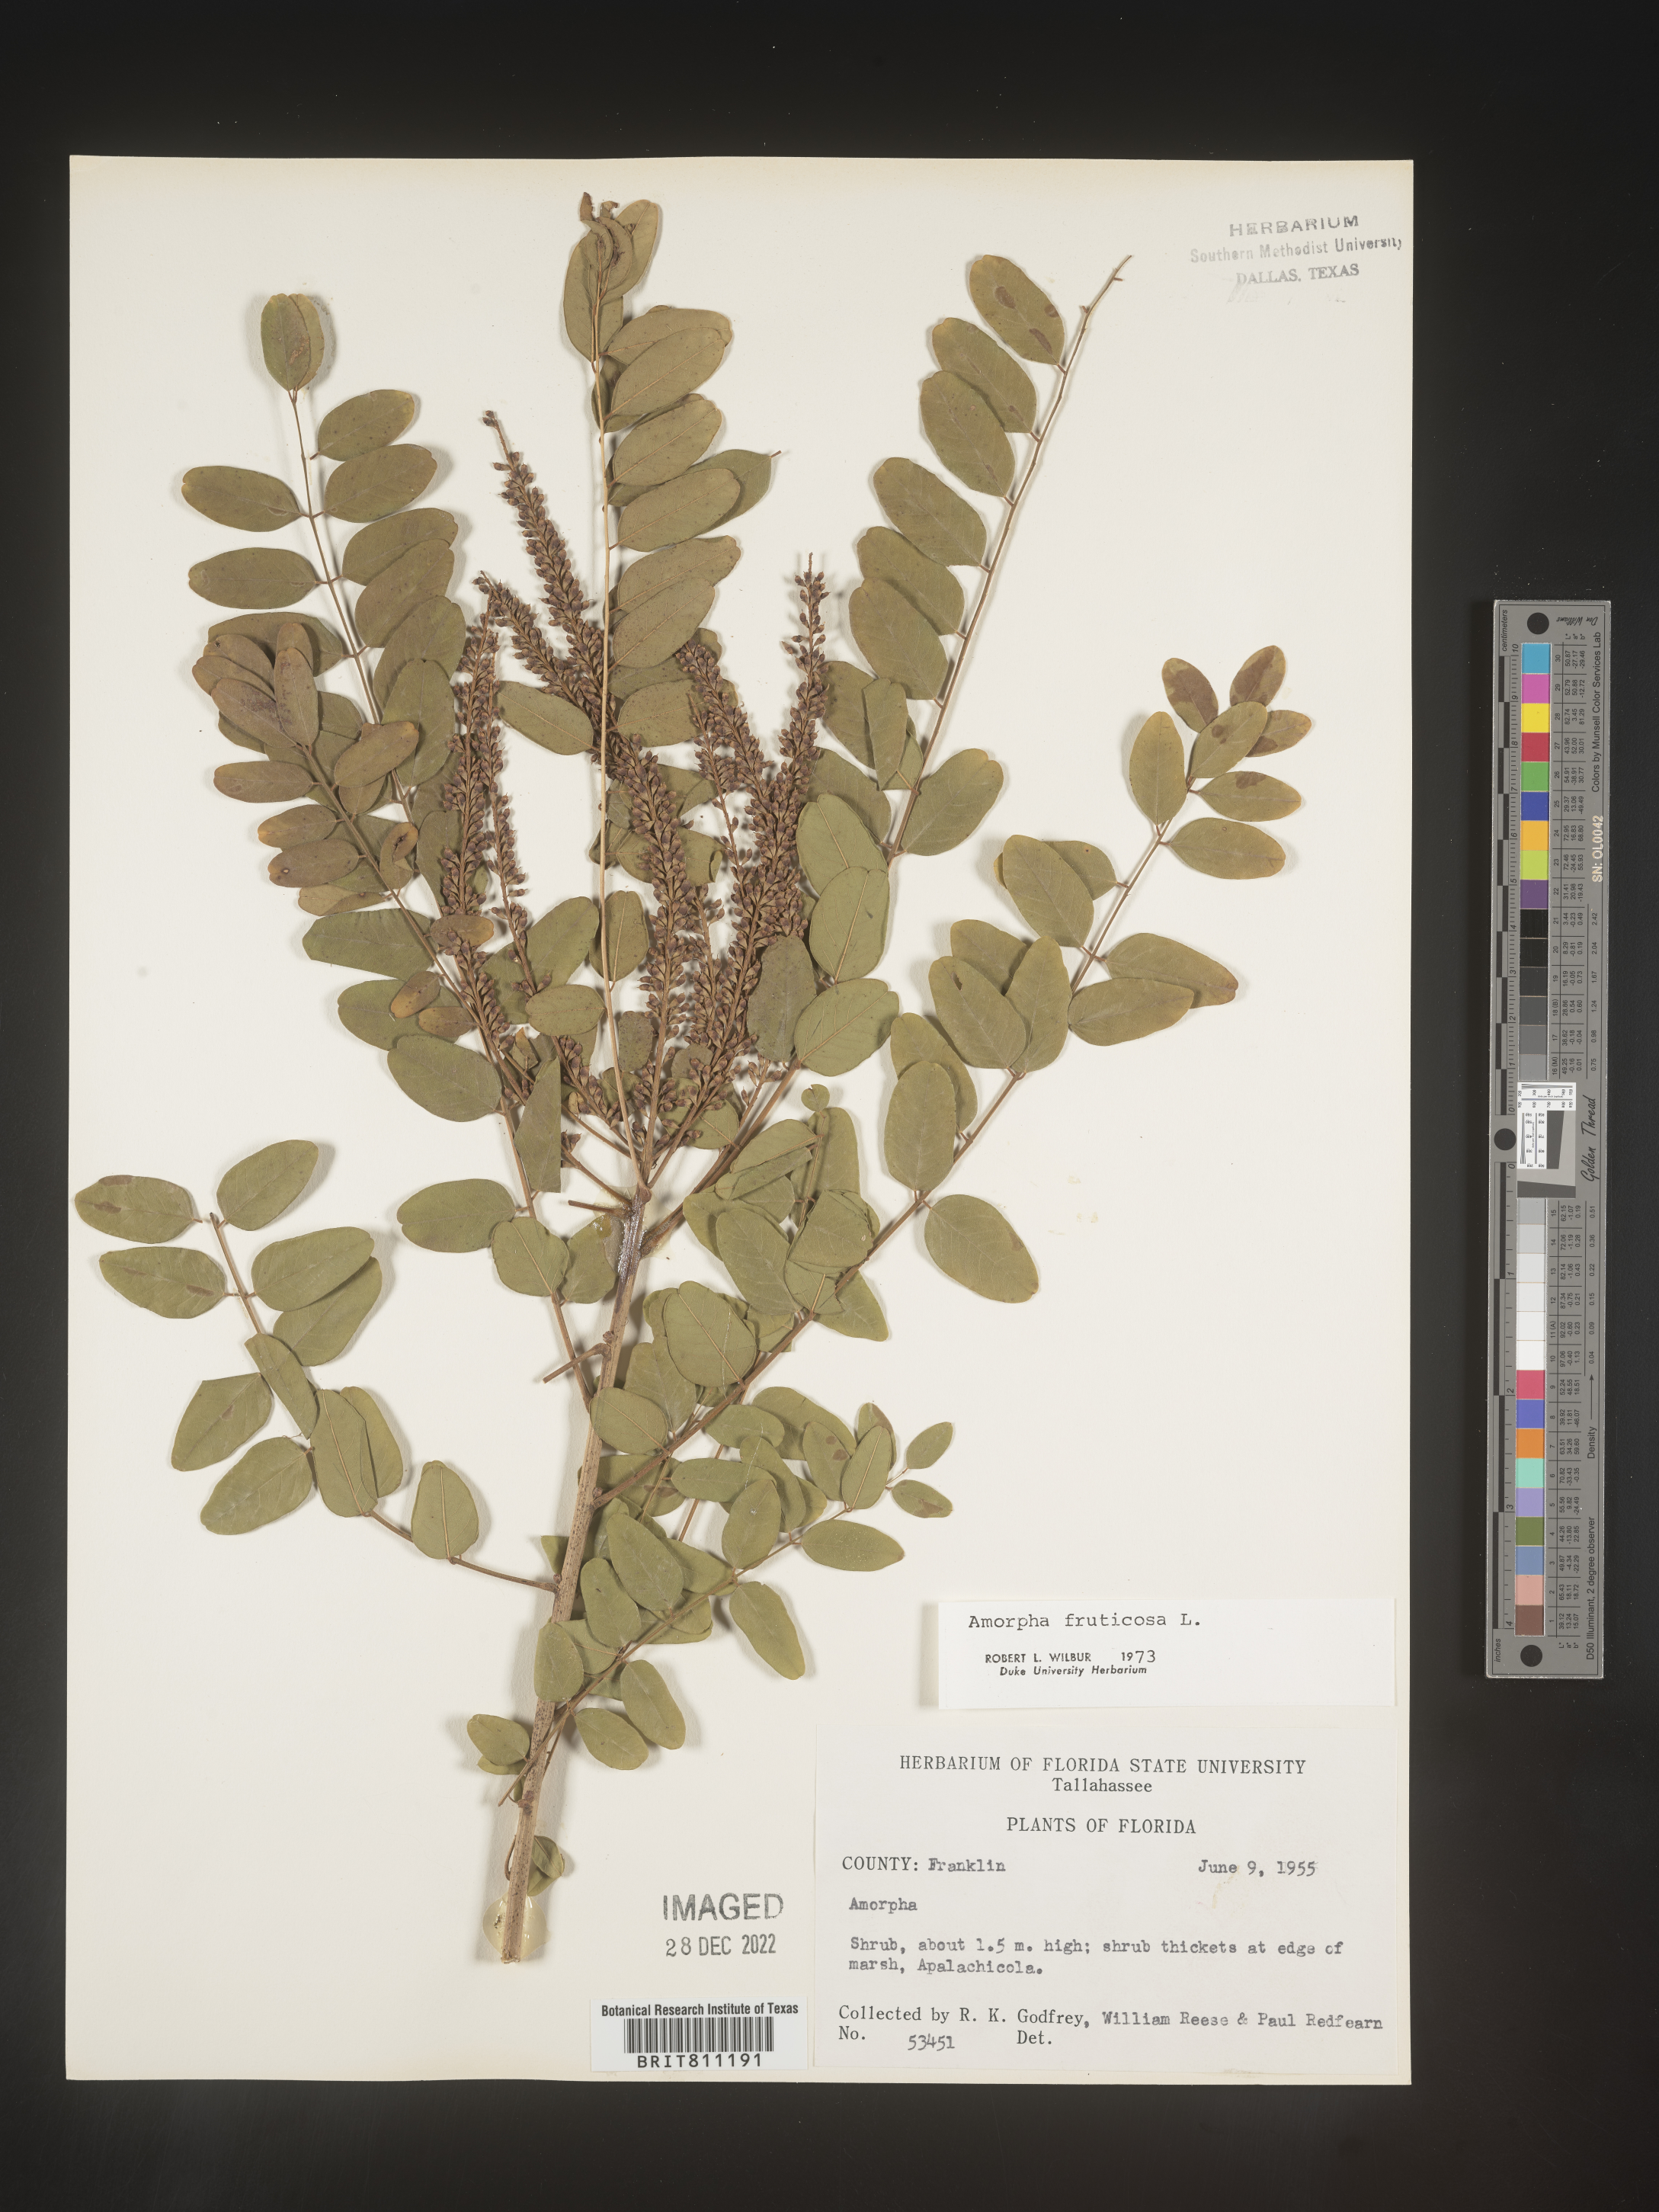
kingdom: Plantae
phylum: Tracheophyta
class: Magnoliopsida
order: Fabales
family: Fabaceae
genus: Amorpha
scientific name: Amorpha fruticosa
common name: False indigo
